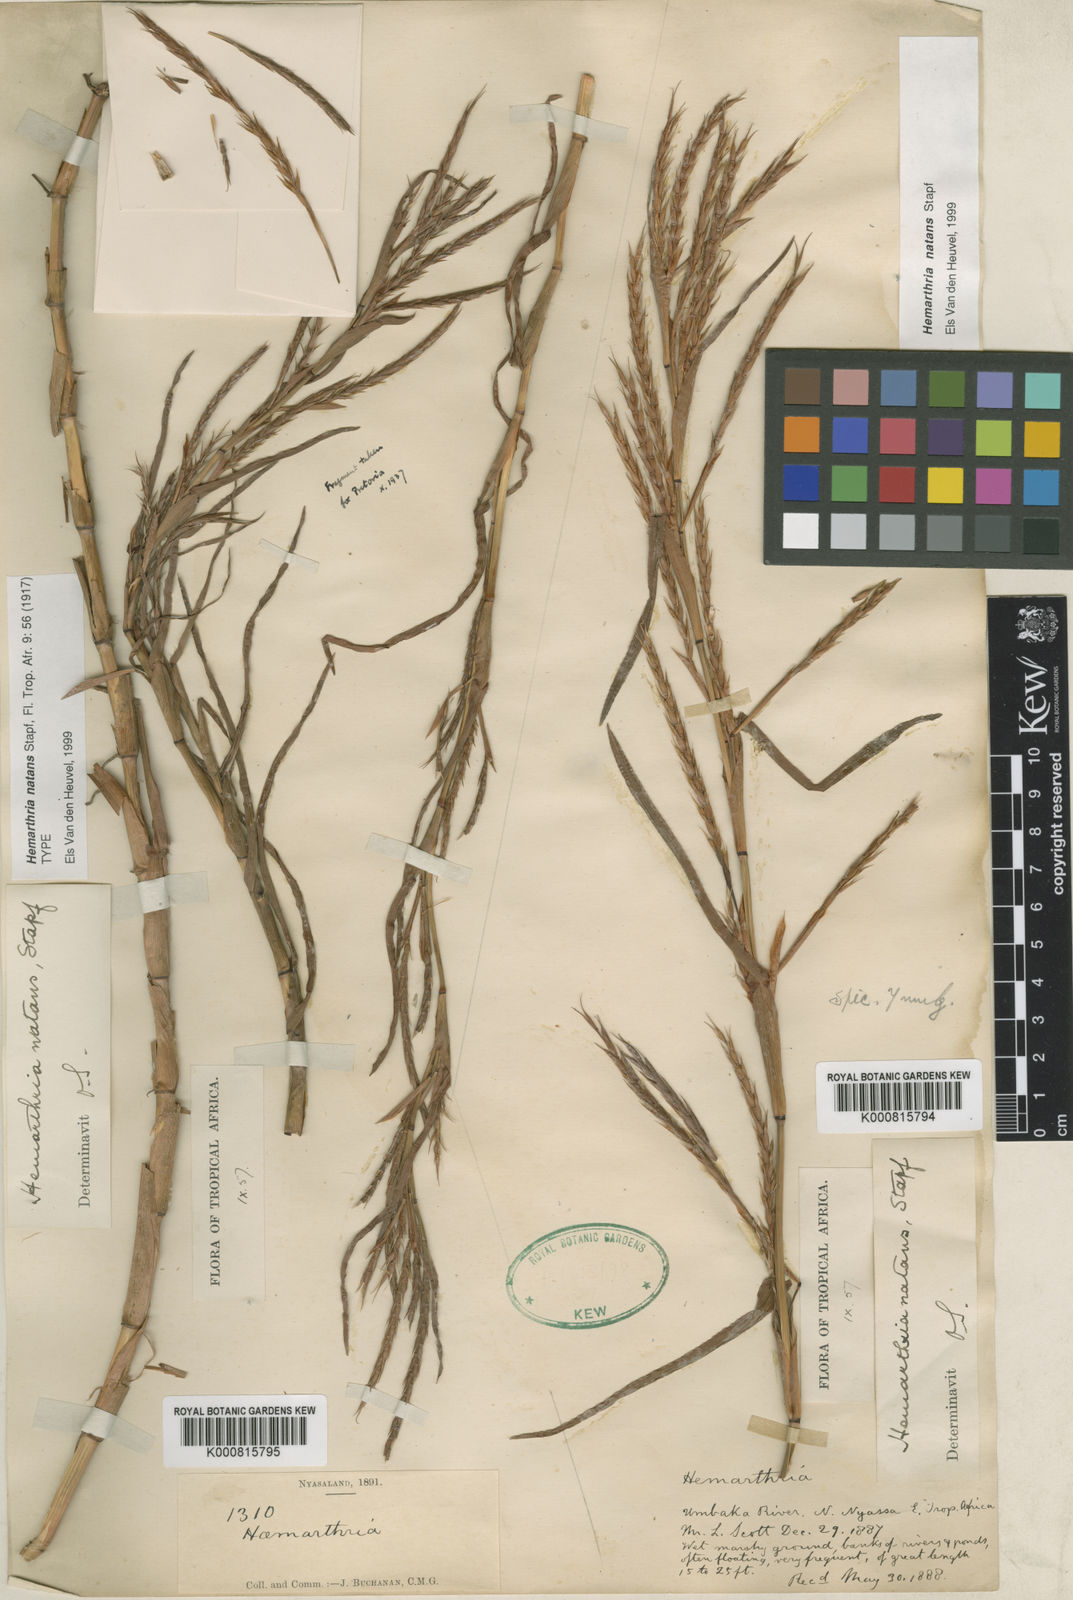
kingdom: Plantae
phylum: Tracheophyta
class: Liliopsida
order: Poales
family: Poaceae
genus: Hemarthria
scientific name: Hemarthria natans
